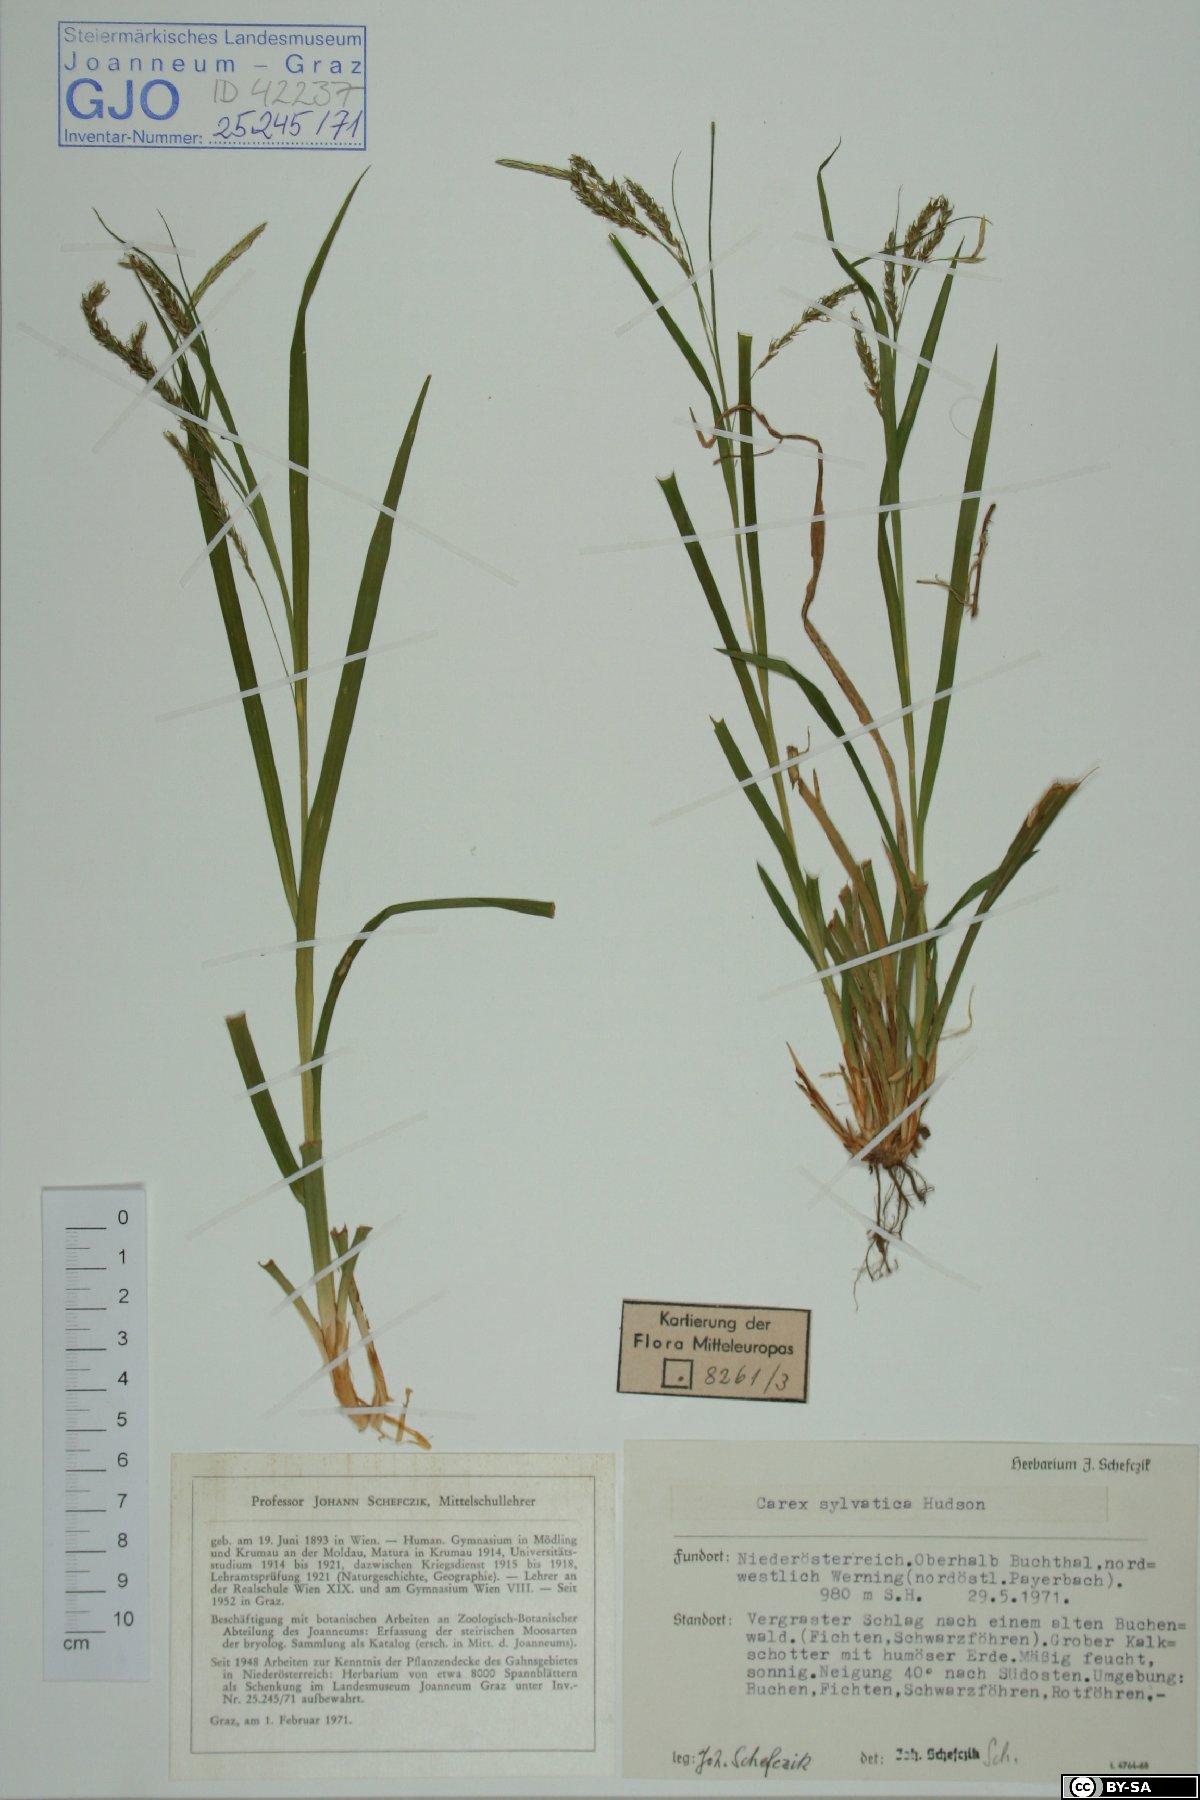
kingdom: Plantae
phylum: Tracheophyta
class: Liliopsida
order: Poales
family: Cyperaceae
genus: Carex
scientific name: Carex sylvatica
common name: Wood-sedge
